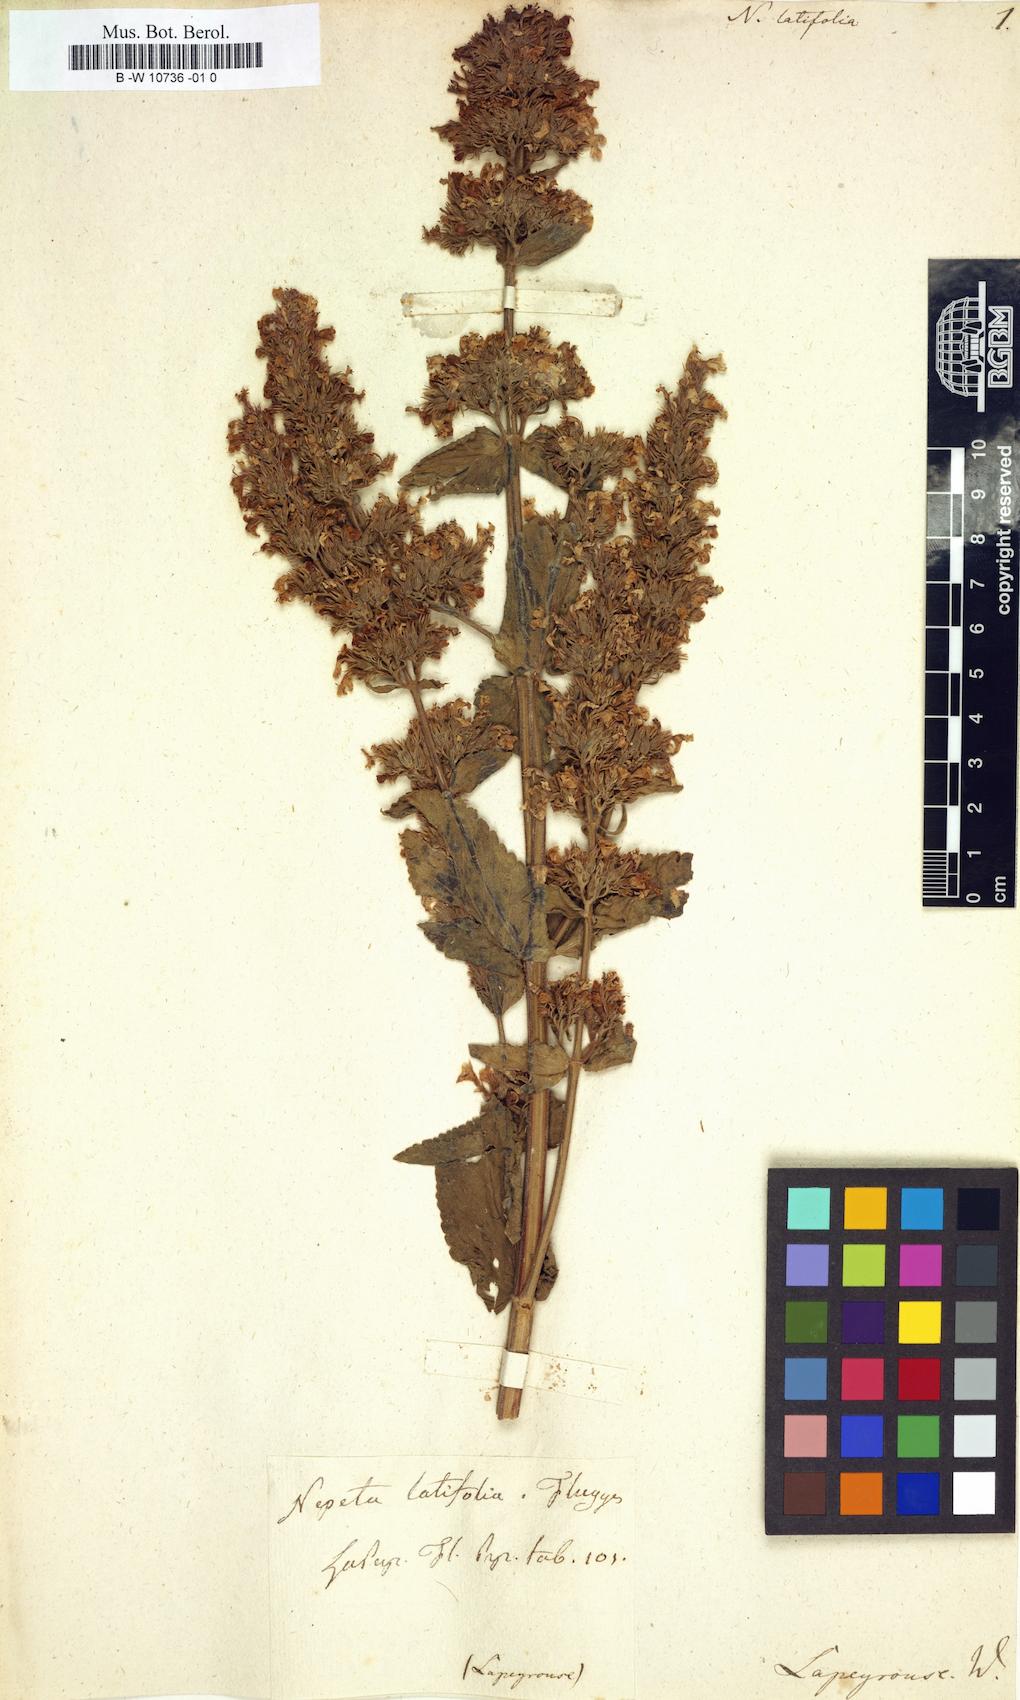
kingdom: Plantae
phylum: Tracheophyta
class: Magnoliopsida
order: Lamiales
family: Lamiaceae
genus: Nepeta
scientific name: Nepeta latifolia
